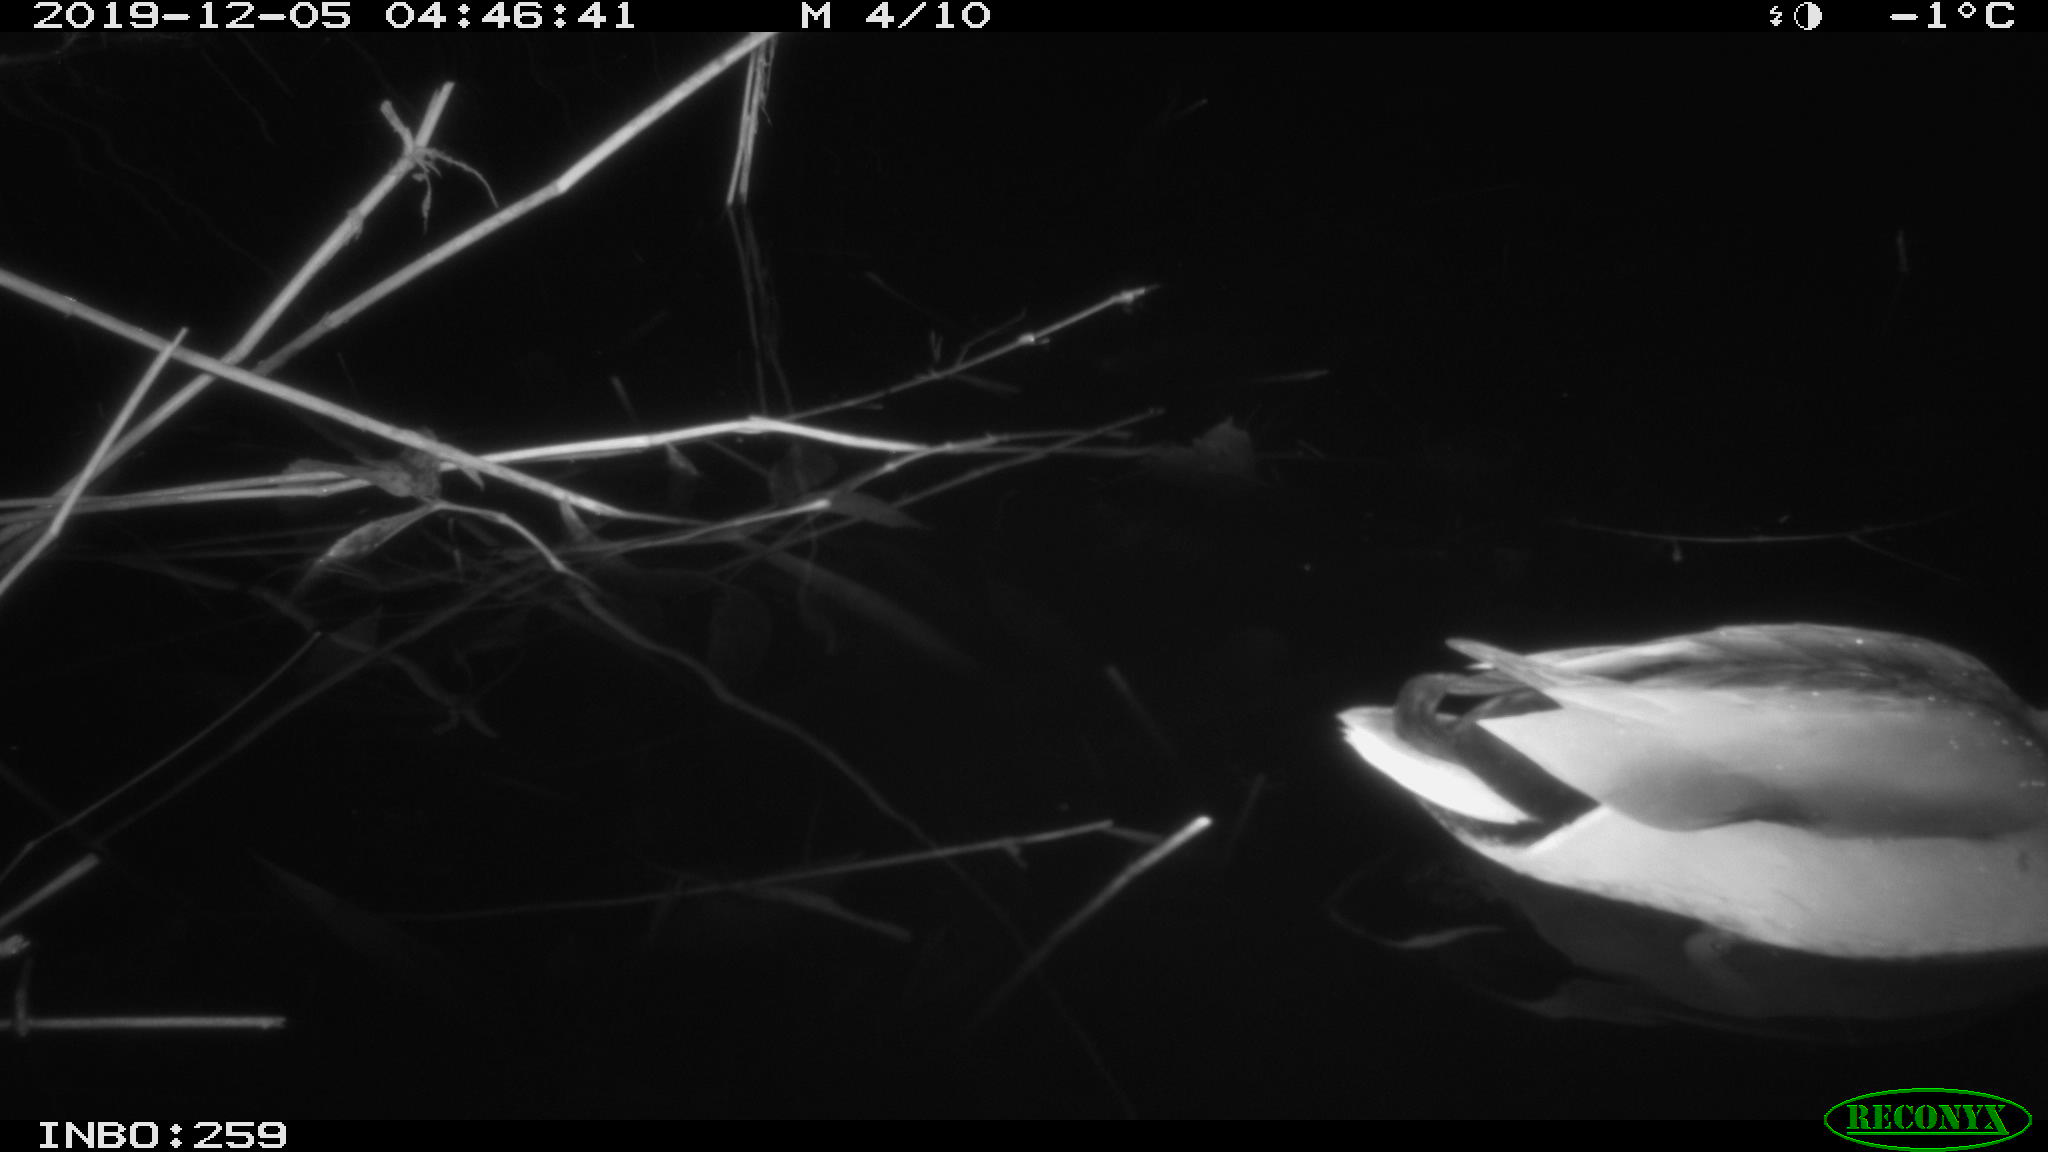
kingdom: Animalia
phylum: Chordata
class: Aves
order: Anseriformes
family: Anatidae
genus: Anas
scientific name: Anas platyrhynchos
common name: Mallard
